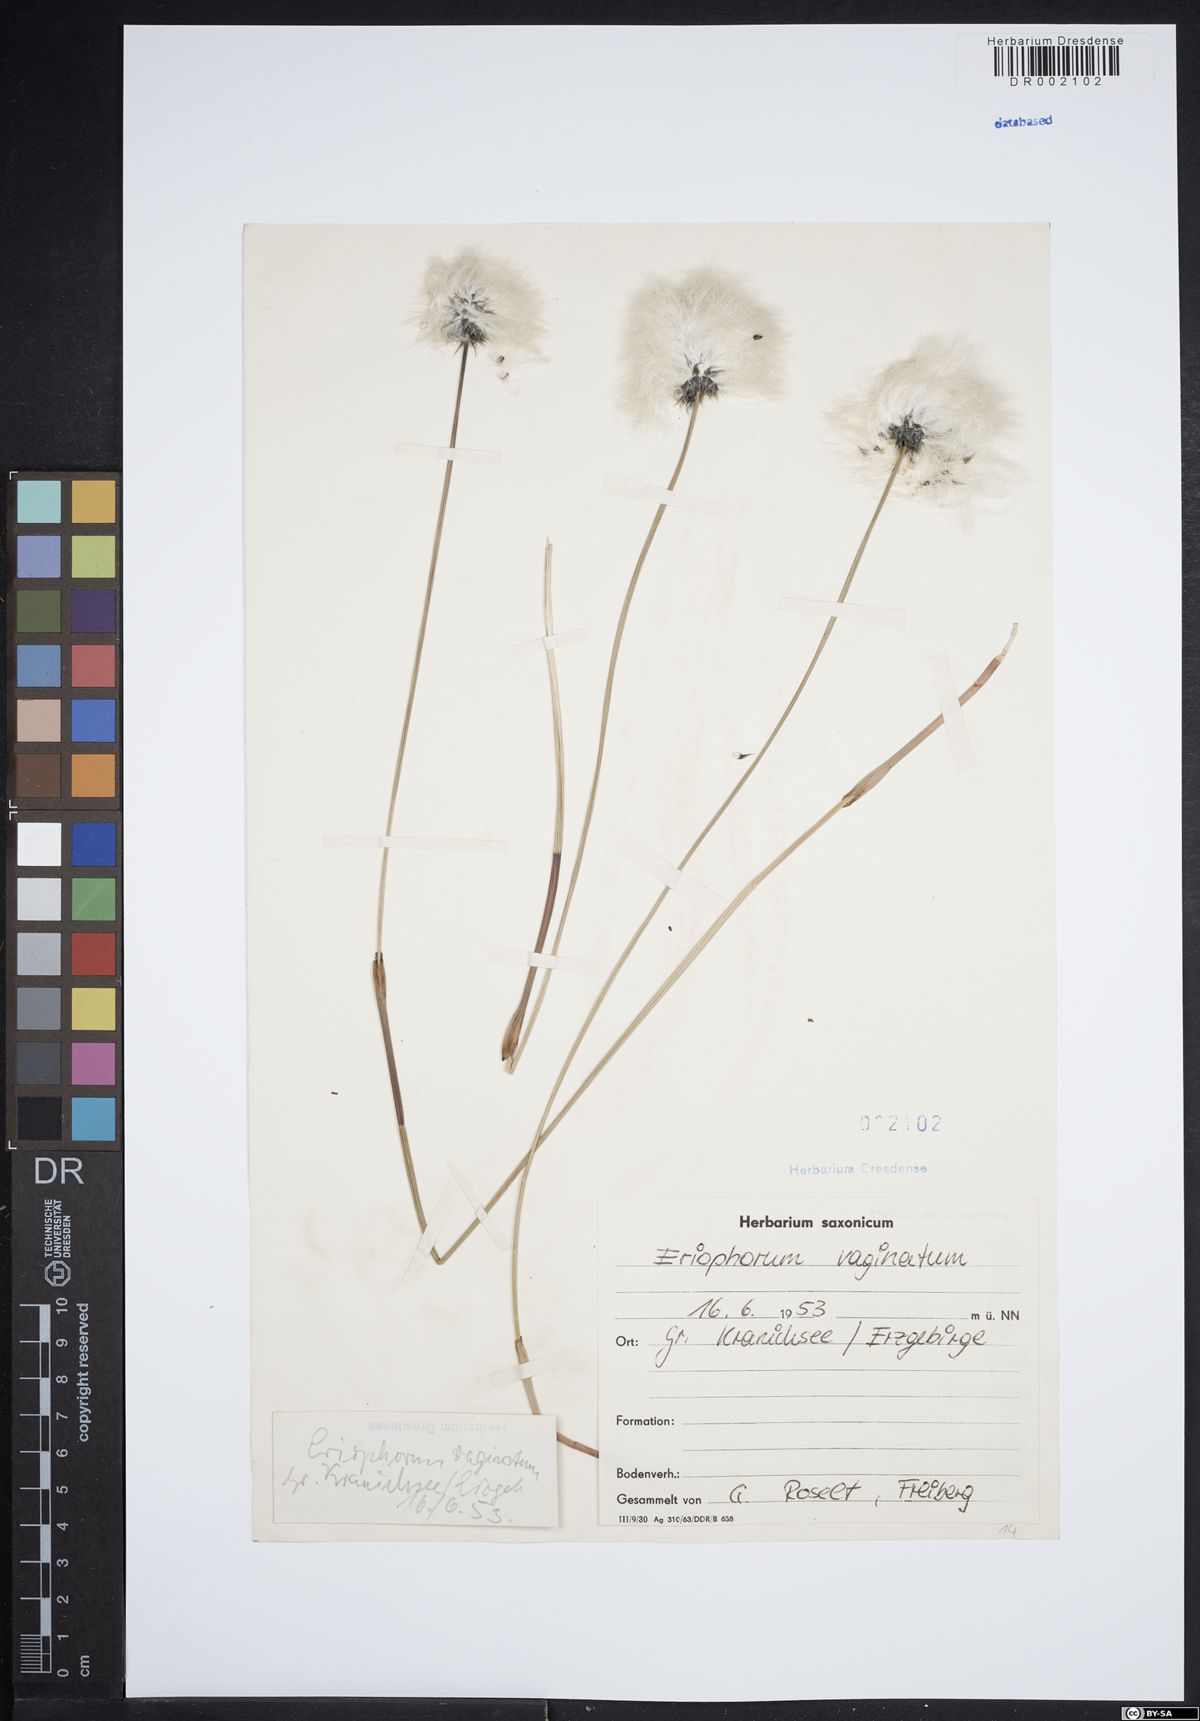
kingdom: Plantae
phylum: Tracheophyta
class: Liliopsida
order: Poales
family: Cyperaceae
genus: Eriophorum
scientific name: Eriophorum vaginatum
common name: Hare's-tail cottongrass
